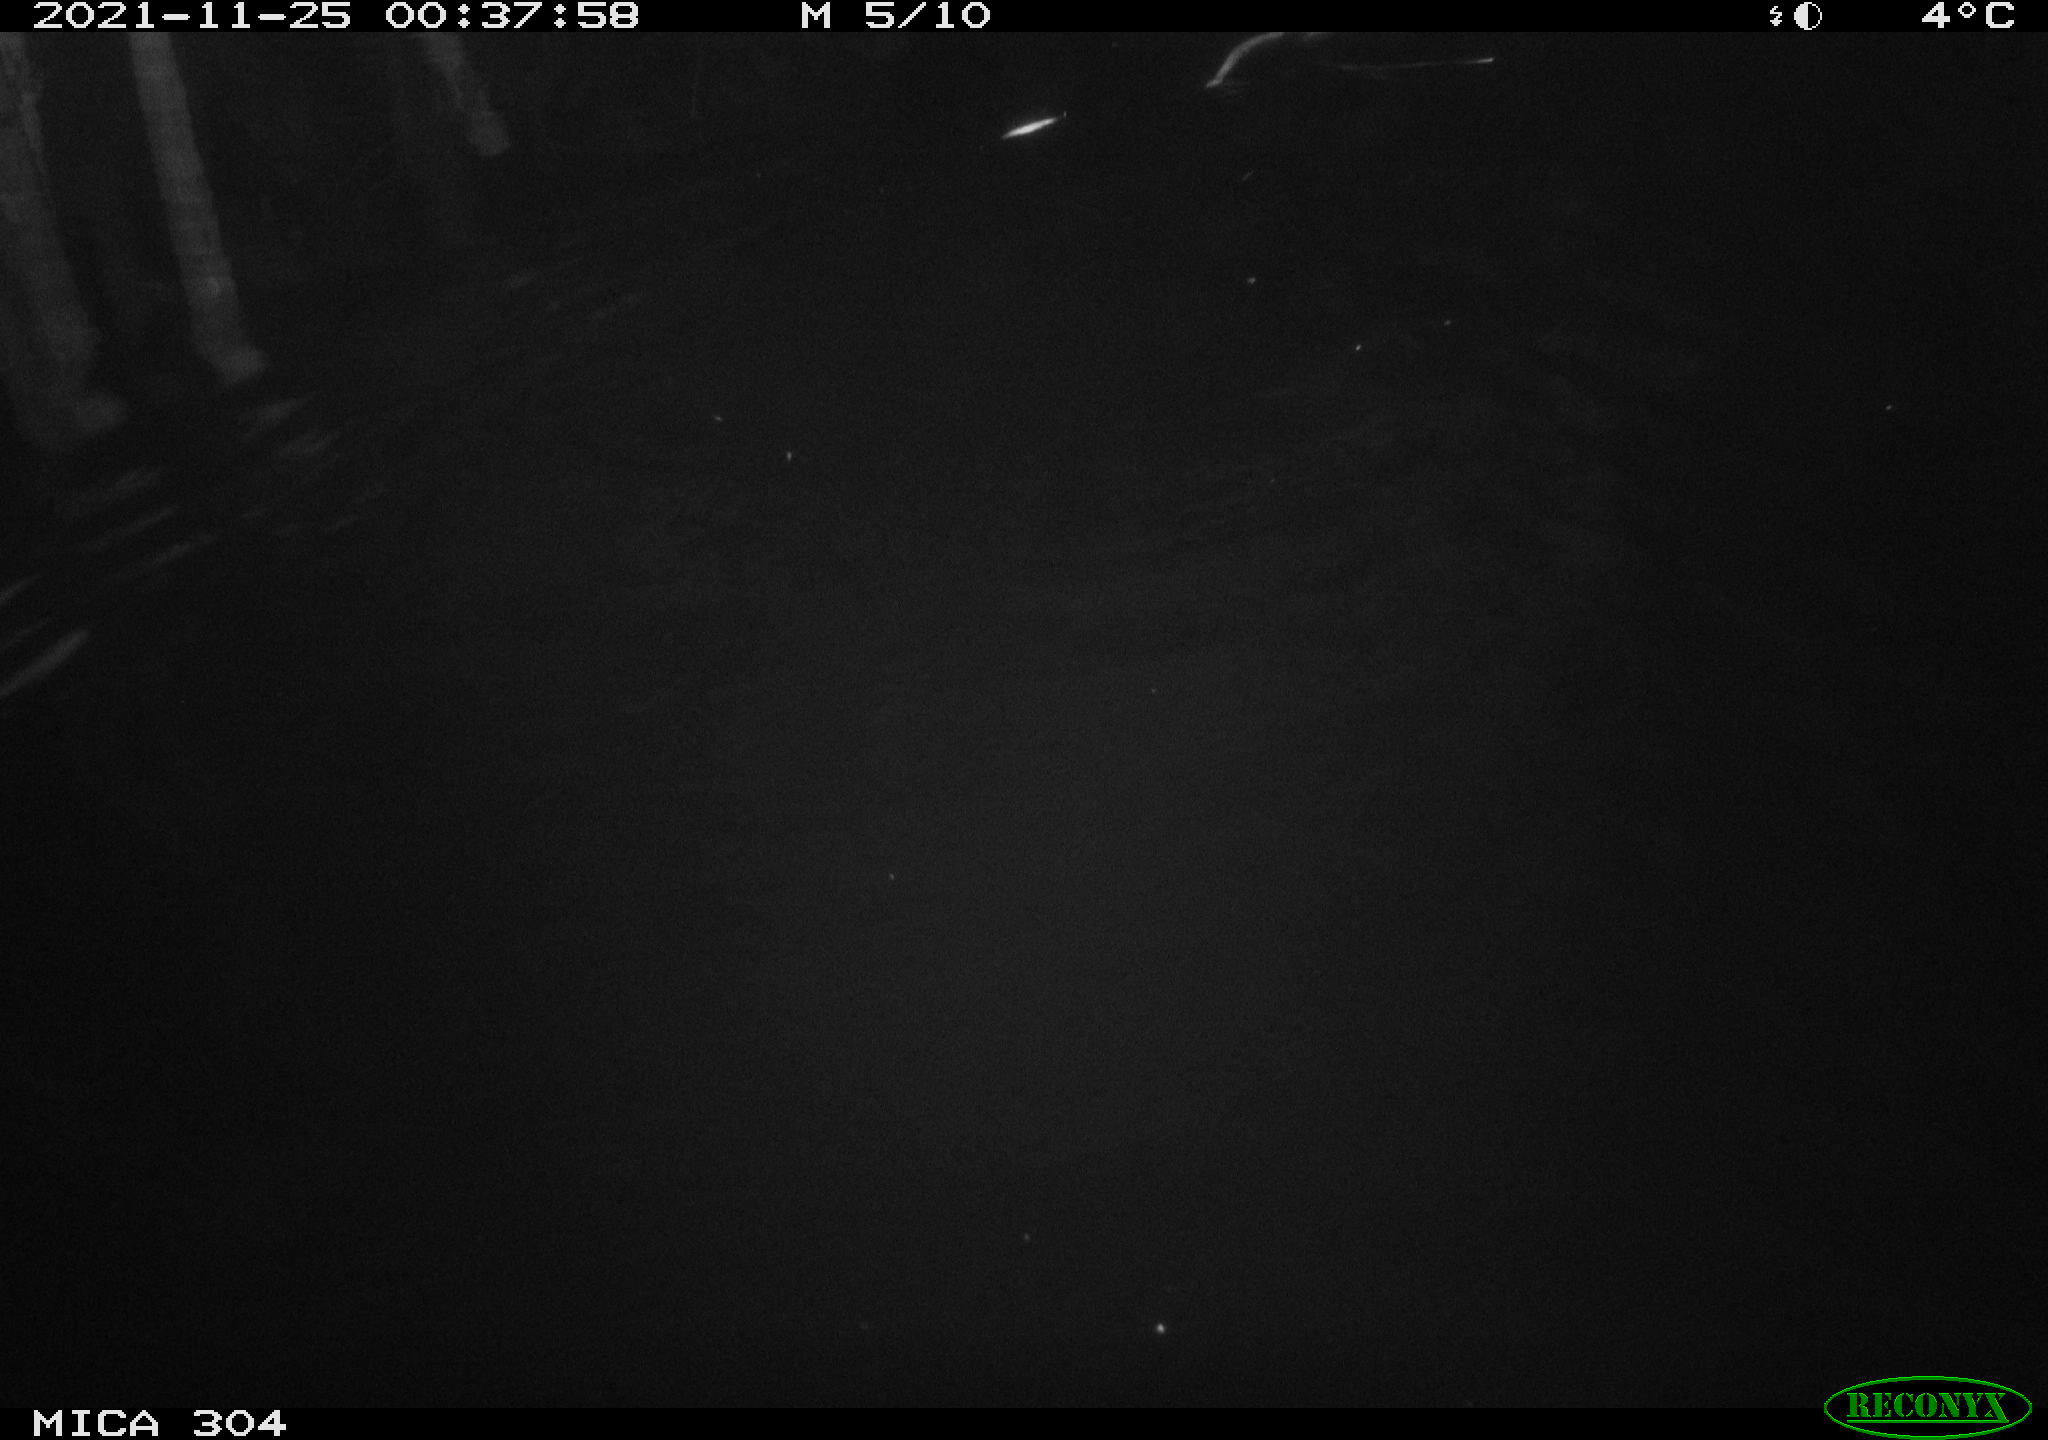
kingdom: Animalia
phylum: Chordata
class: Mammalia
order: Rodentia
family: Cricetidae
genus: Ondatra
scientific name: Ondatra zibethicus
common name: Muskrat
